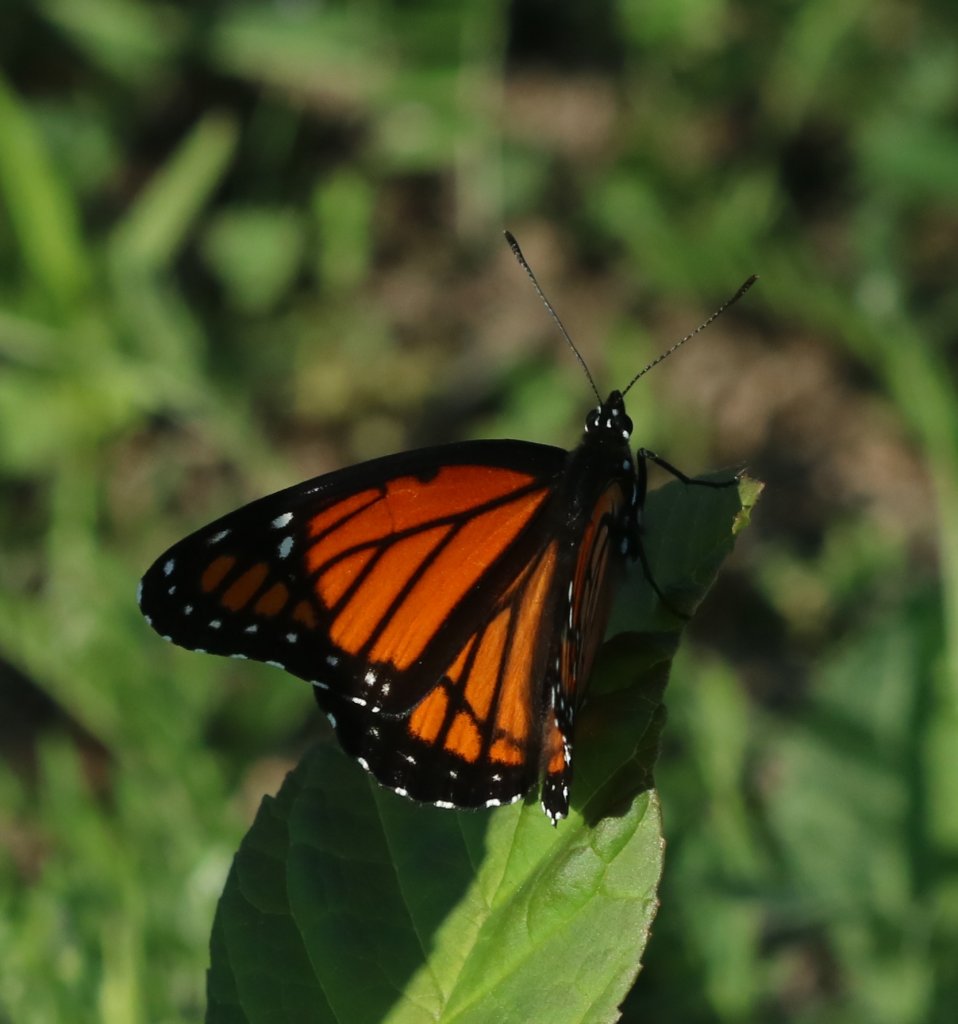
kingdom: Animalia
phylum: Arthropoda
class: Insecta
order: Lepidoptera
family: Nymphalidae
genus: Limenitis
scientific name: Limenitis archippus
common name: Viceroy
